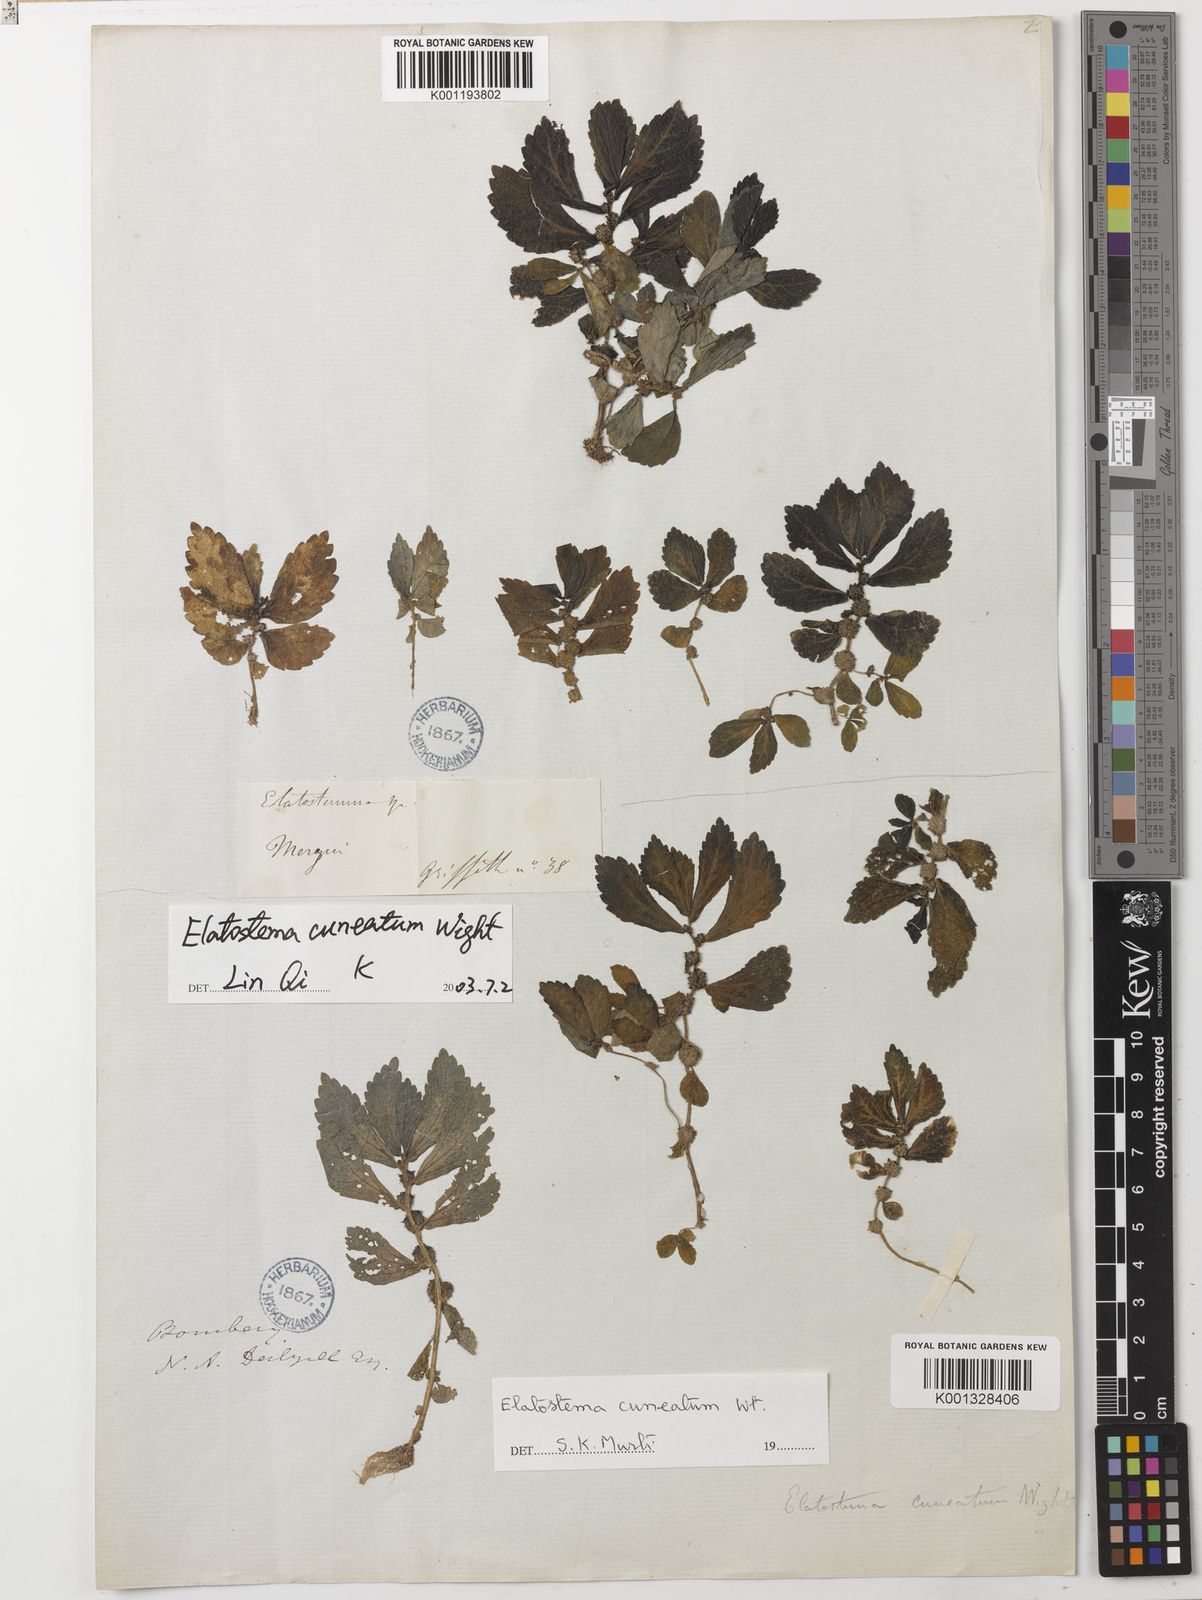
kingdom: Plantae
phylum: Tracheophyta
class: Magnoliopsida
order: Rosales
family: Urticaceae
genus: Elatostema
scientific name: Elatostema cuneatum
